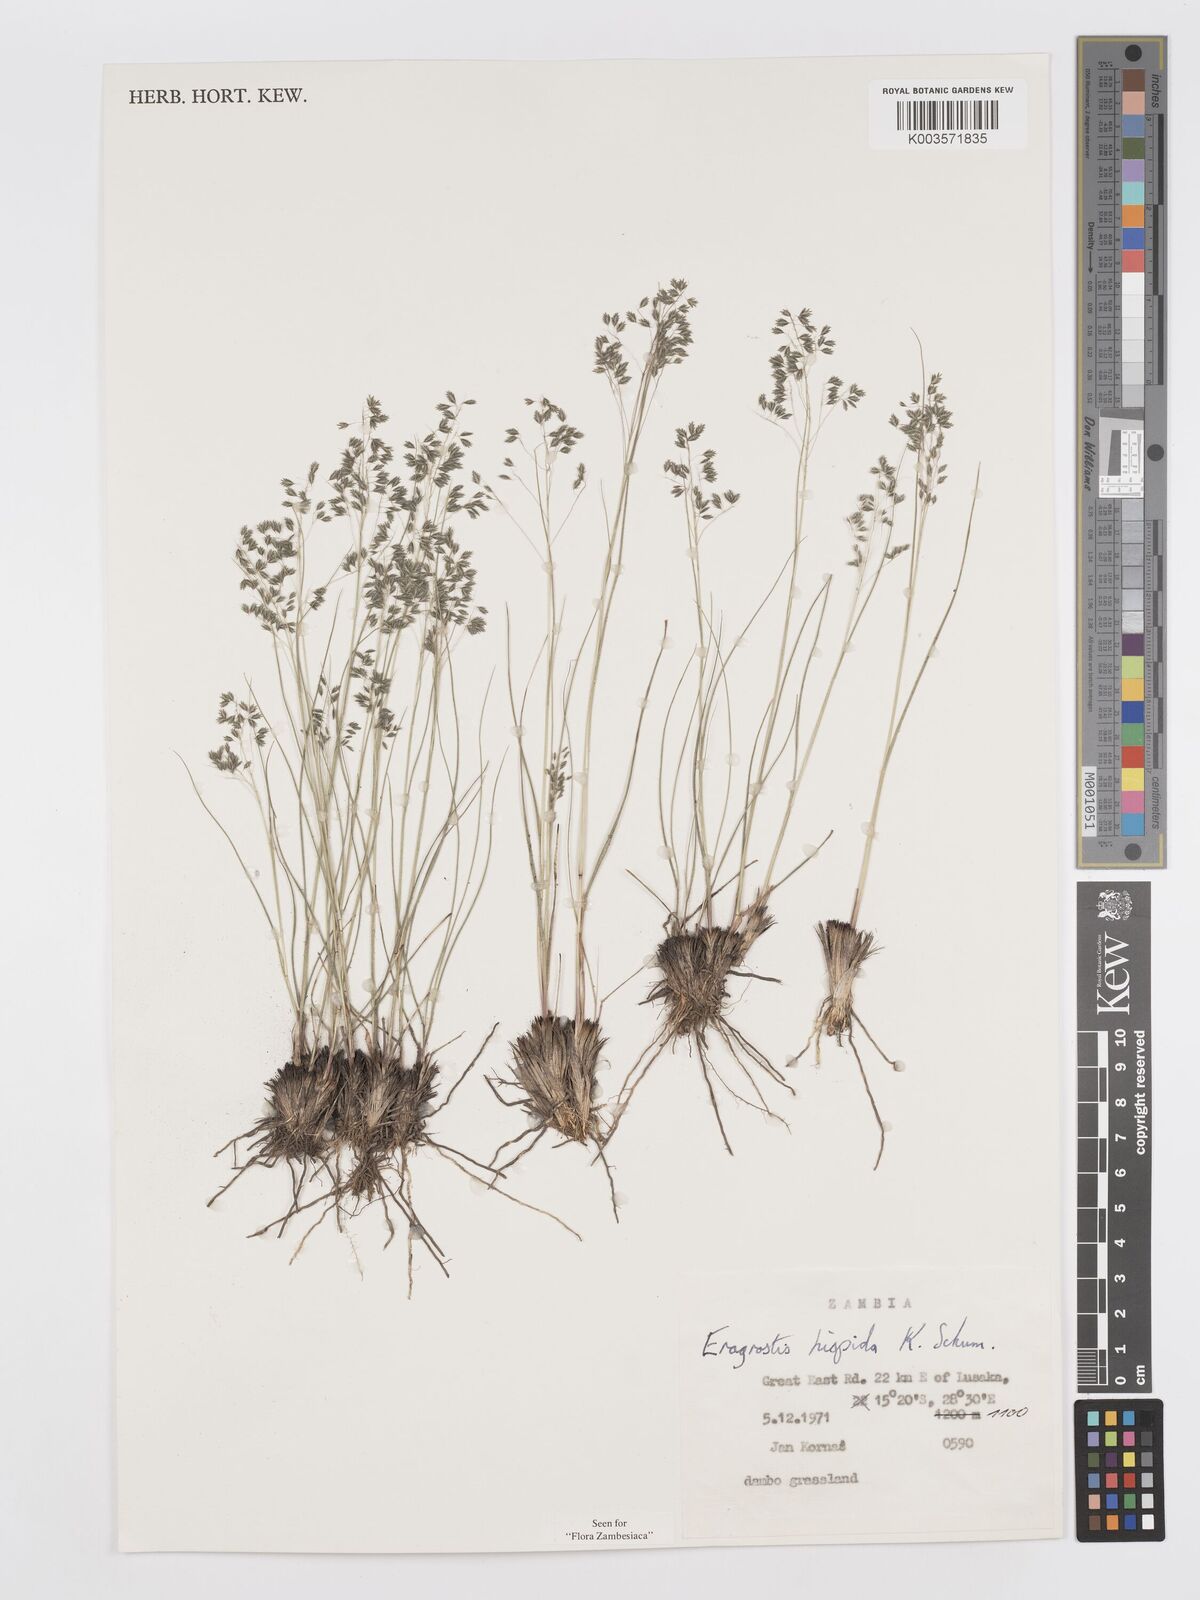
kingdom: Plantae
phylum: Tracheophyta
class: Liliopsida
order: Poales
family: Poaceae
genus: Eragrostis
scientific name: Eragrostis hispida
